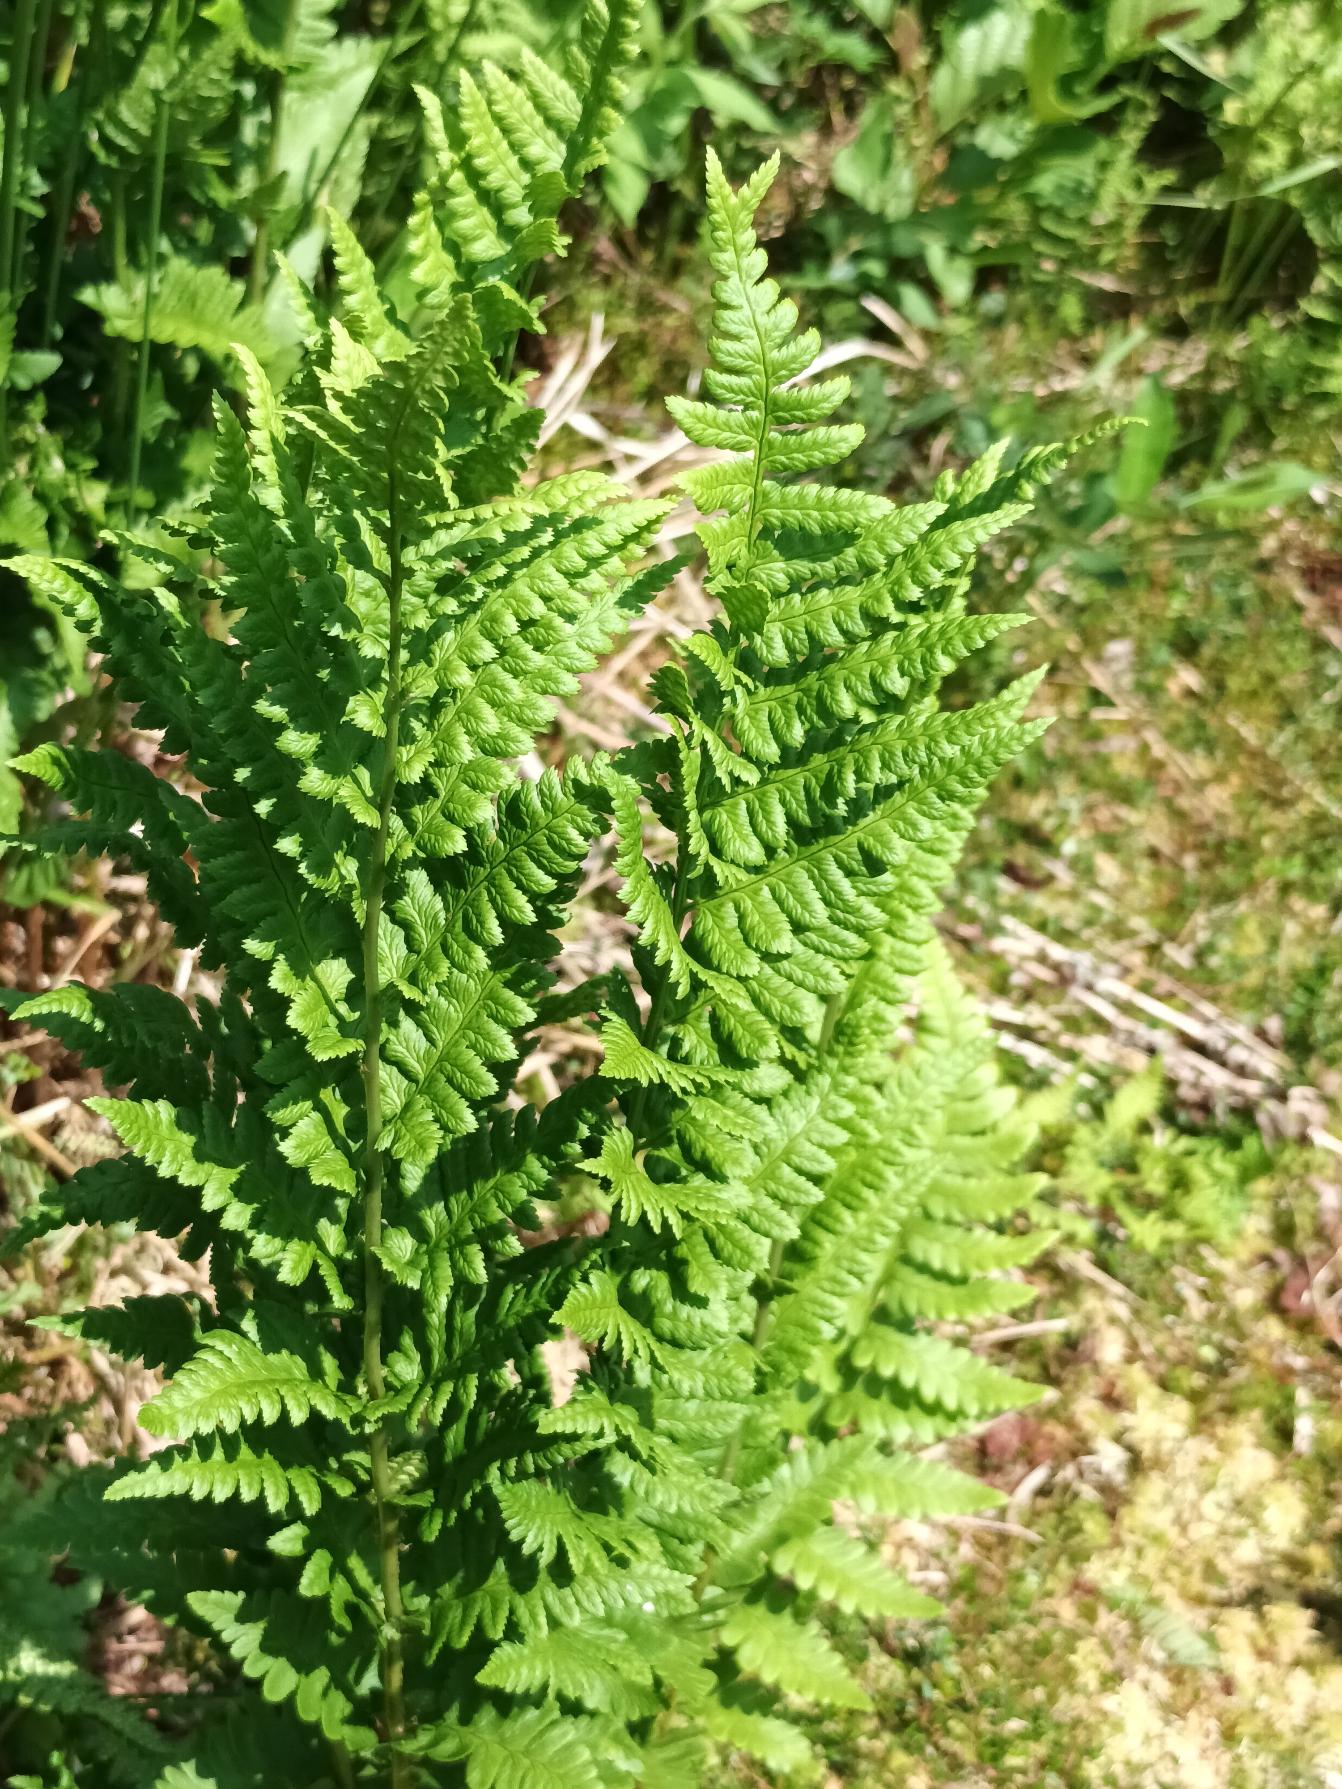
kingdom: Plantae
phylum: Tracheophyta
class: Polypodiopsida
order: Polypodiales
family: Dryopteridaceae
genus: Dryopteris
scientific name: Dryopteris cristata
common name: Butfinnet mangeløv
